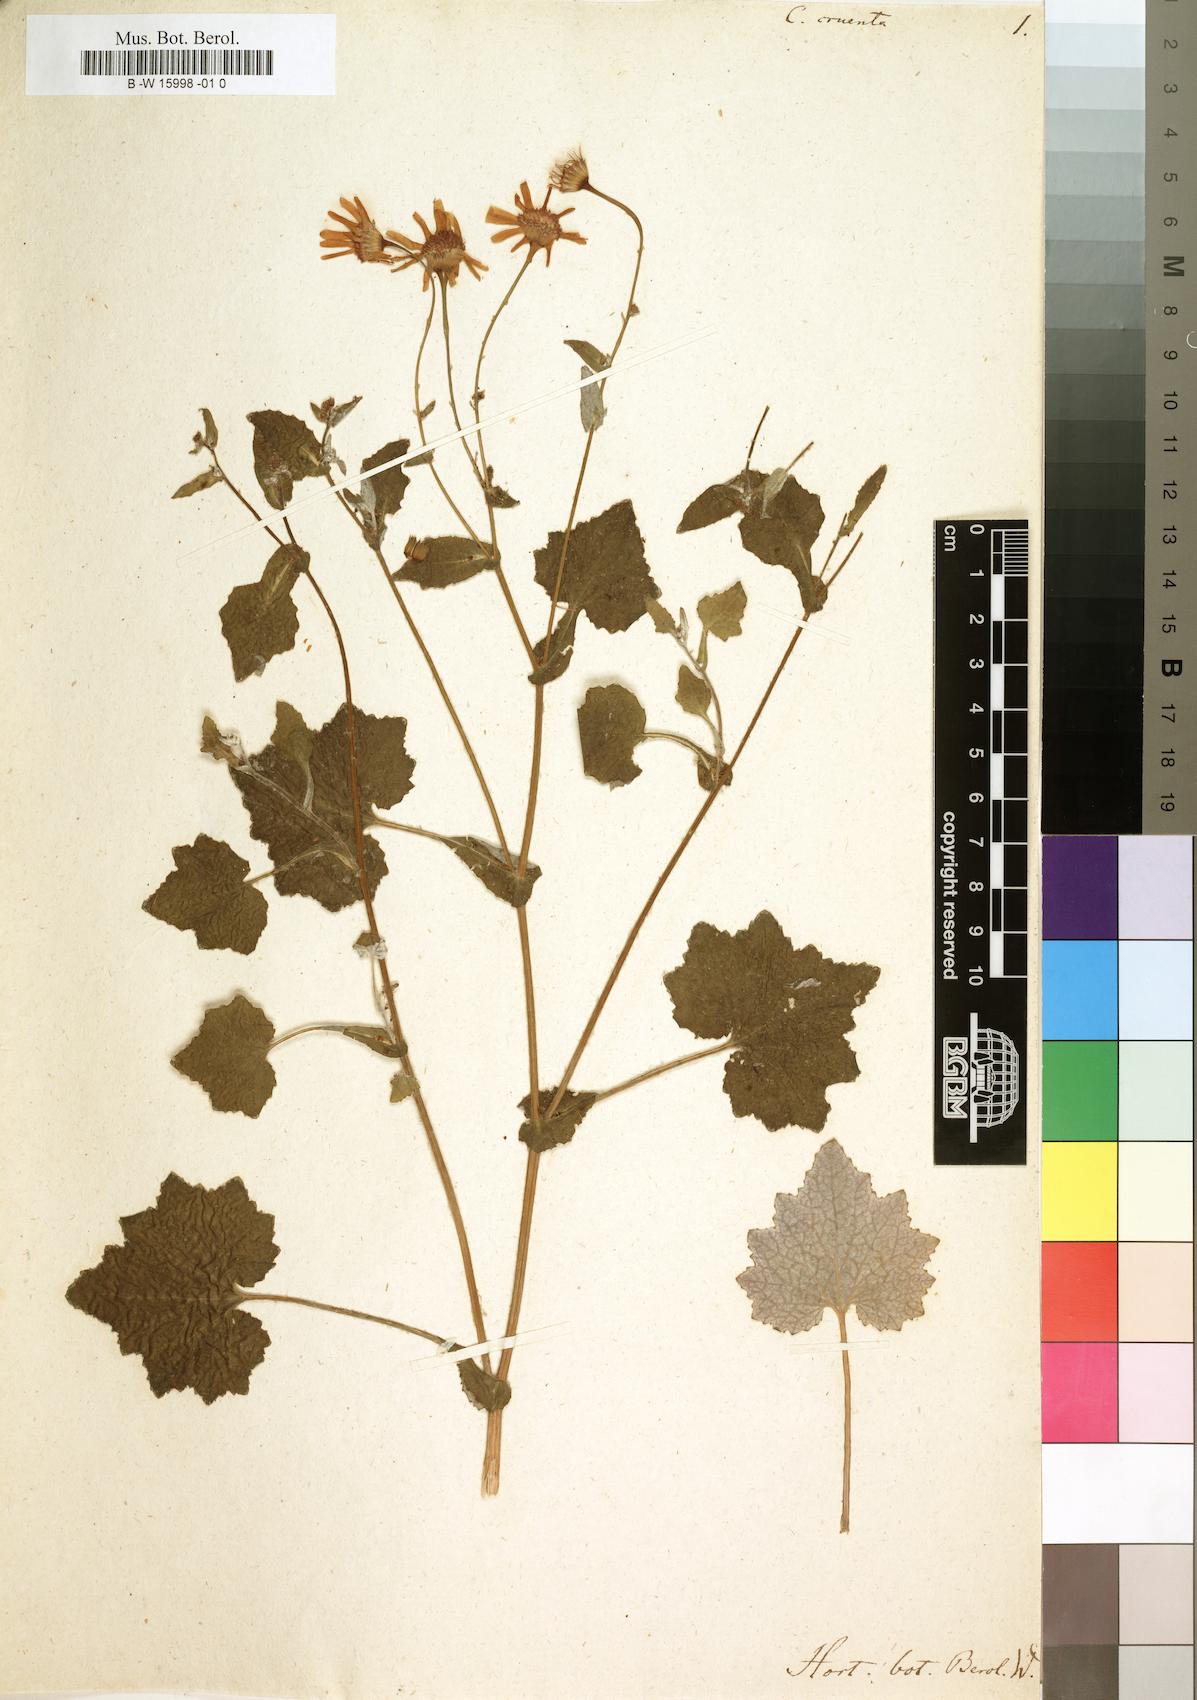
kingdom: Plantae
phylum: Tracheophyta
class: Magnoliopsida
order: Asterales
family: Asteraceae
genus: Pericallis
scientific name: Pericallis cruenta
